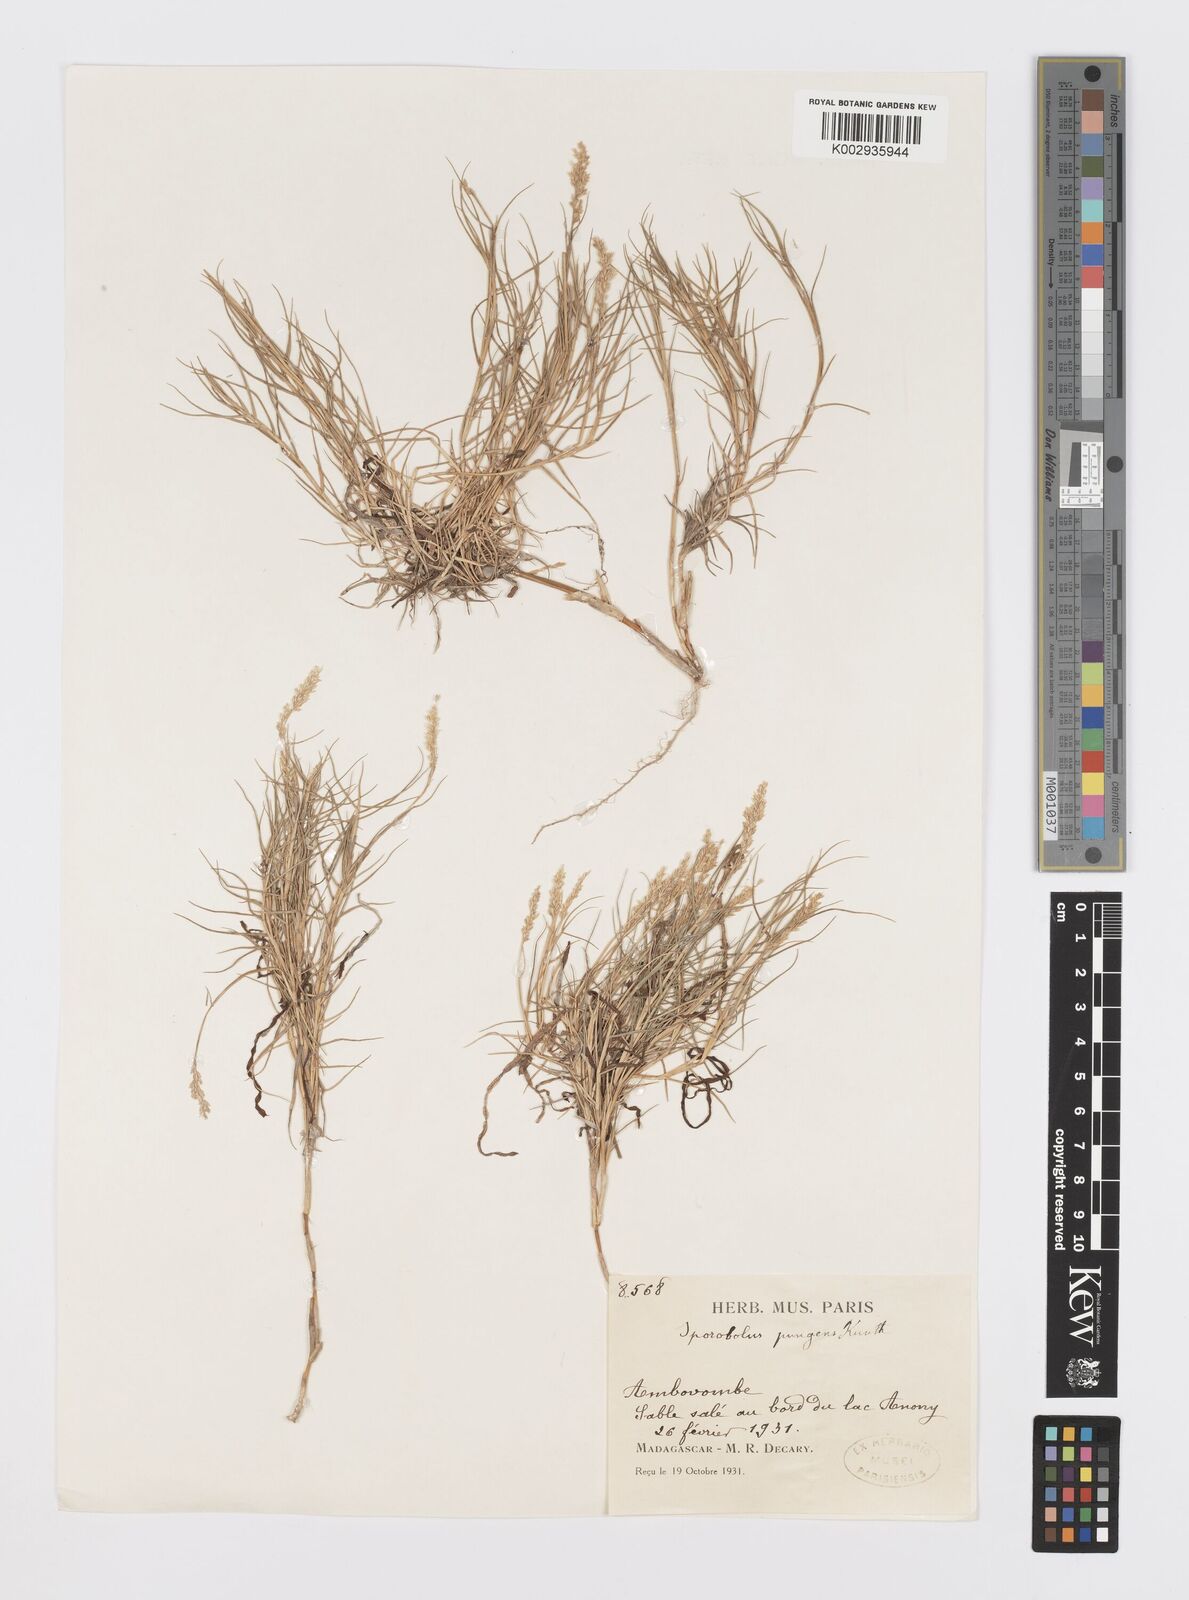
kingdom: Plantae
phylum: Tracheophyta
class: Liliopsida
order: Poales
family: Poaceae
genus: Sporobolus
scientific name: Sporobolus virginicus
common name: Beach dropseed
